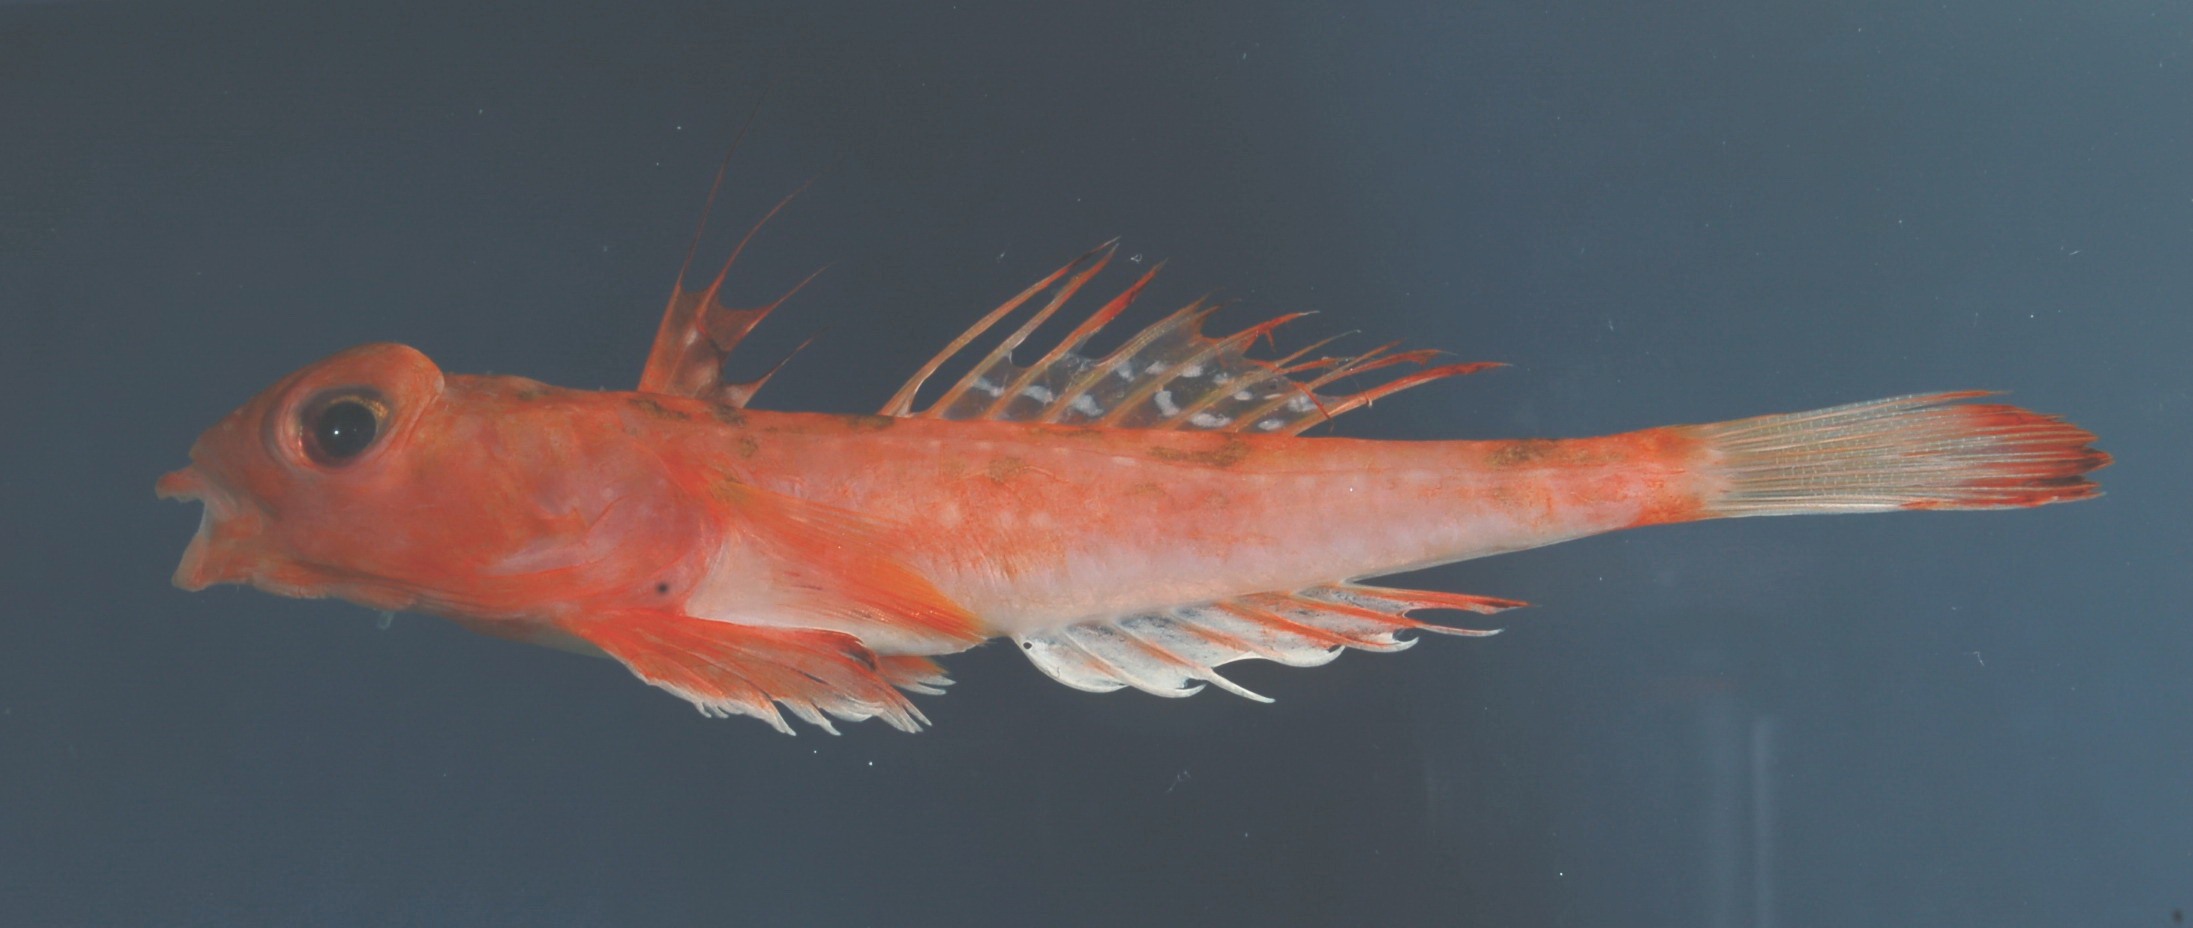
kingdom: Animalia
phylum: Chordata
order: Perciformes
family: Callionymidae
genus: Synchiropus
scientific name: Synchiropus monacanthus
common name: Deep-water dragonet
